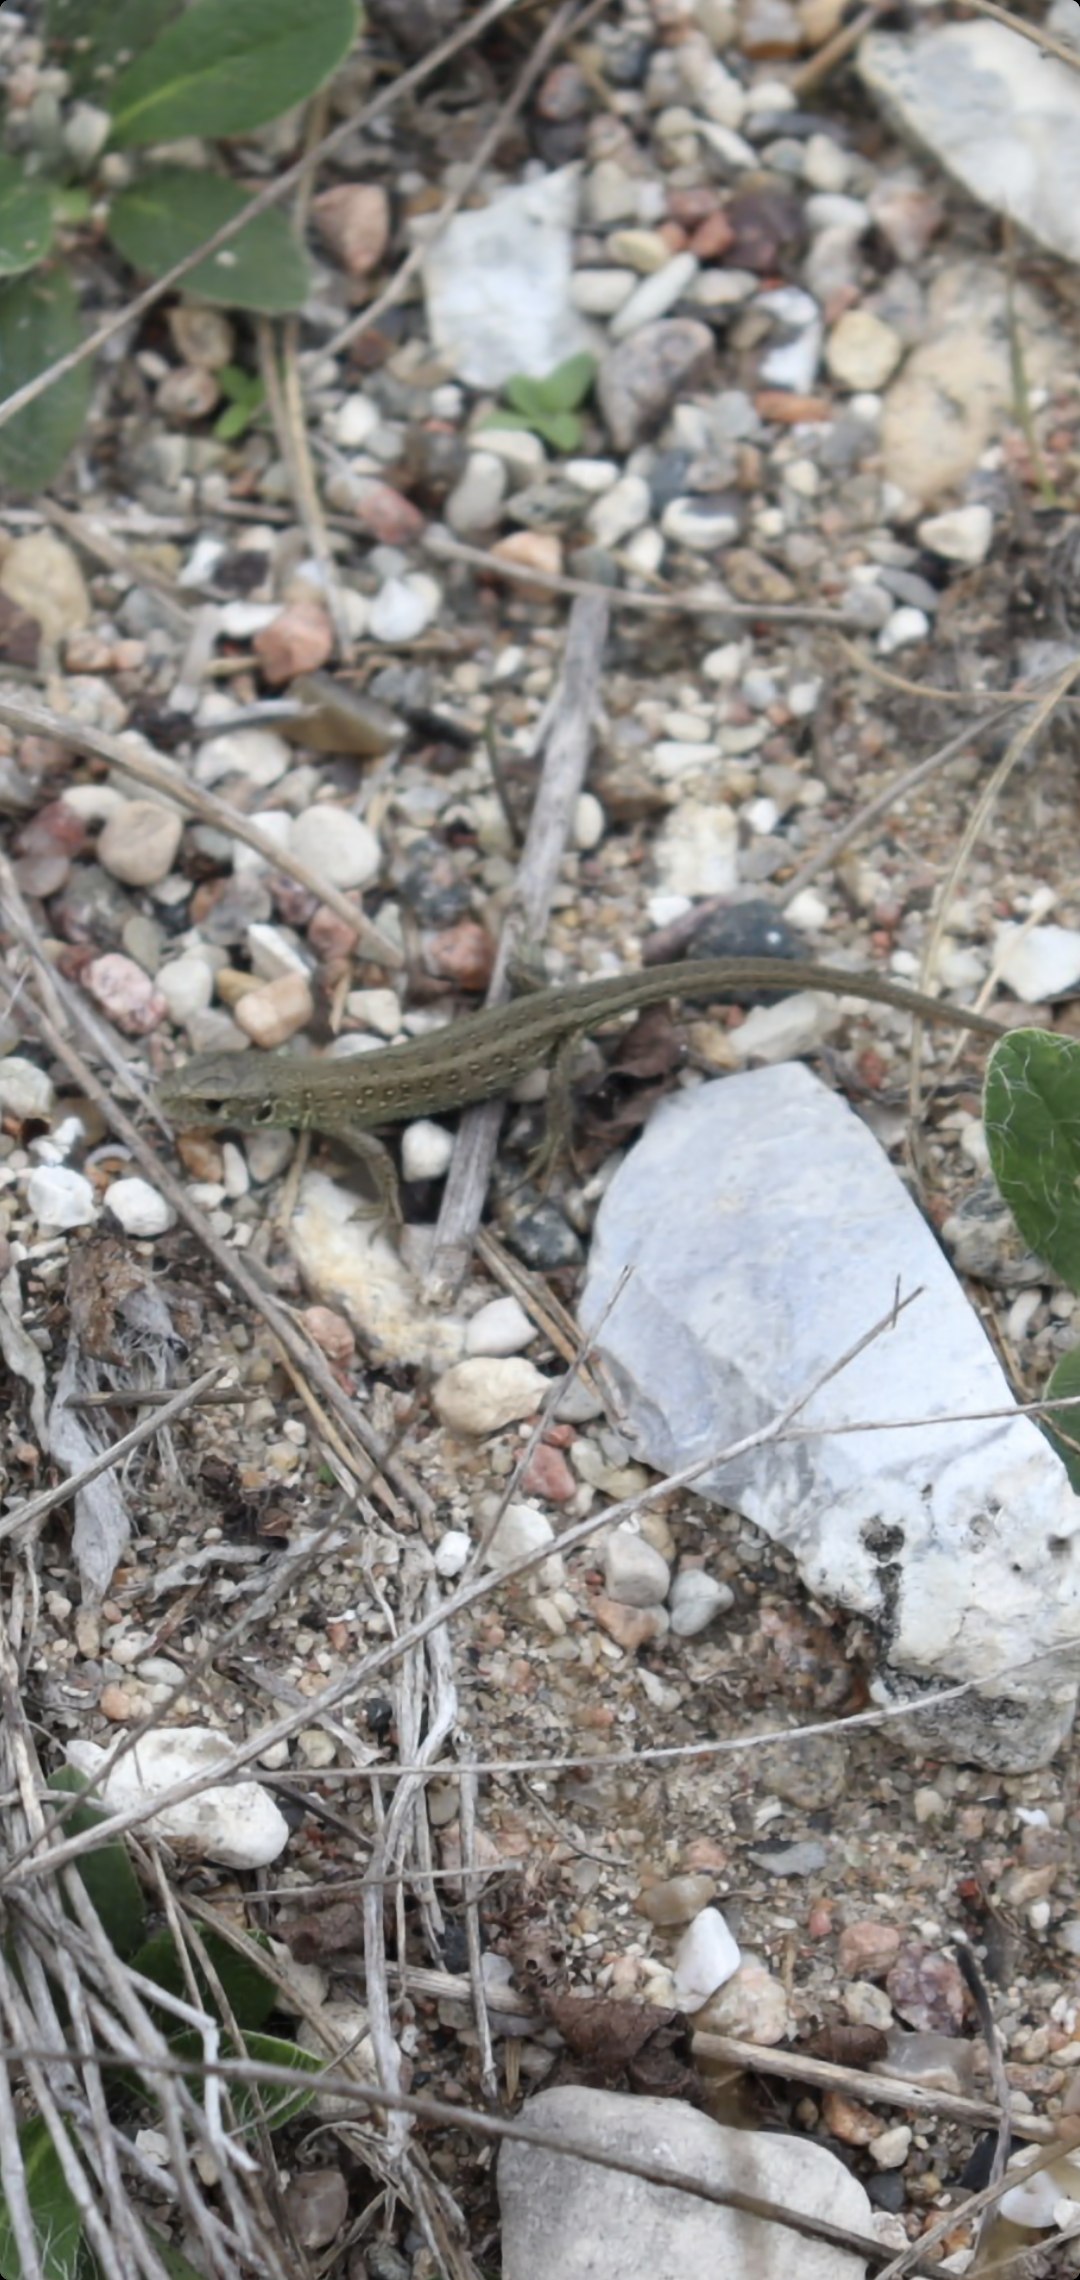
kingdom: Animalia
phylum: Chordata
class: Squamata
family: Lacertidae
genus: Lacerta
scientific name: Lacerta agilis
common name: Markfirben
